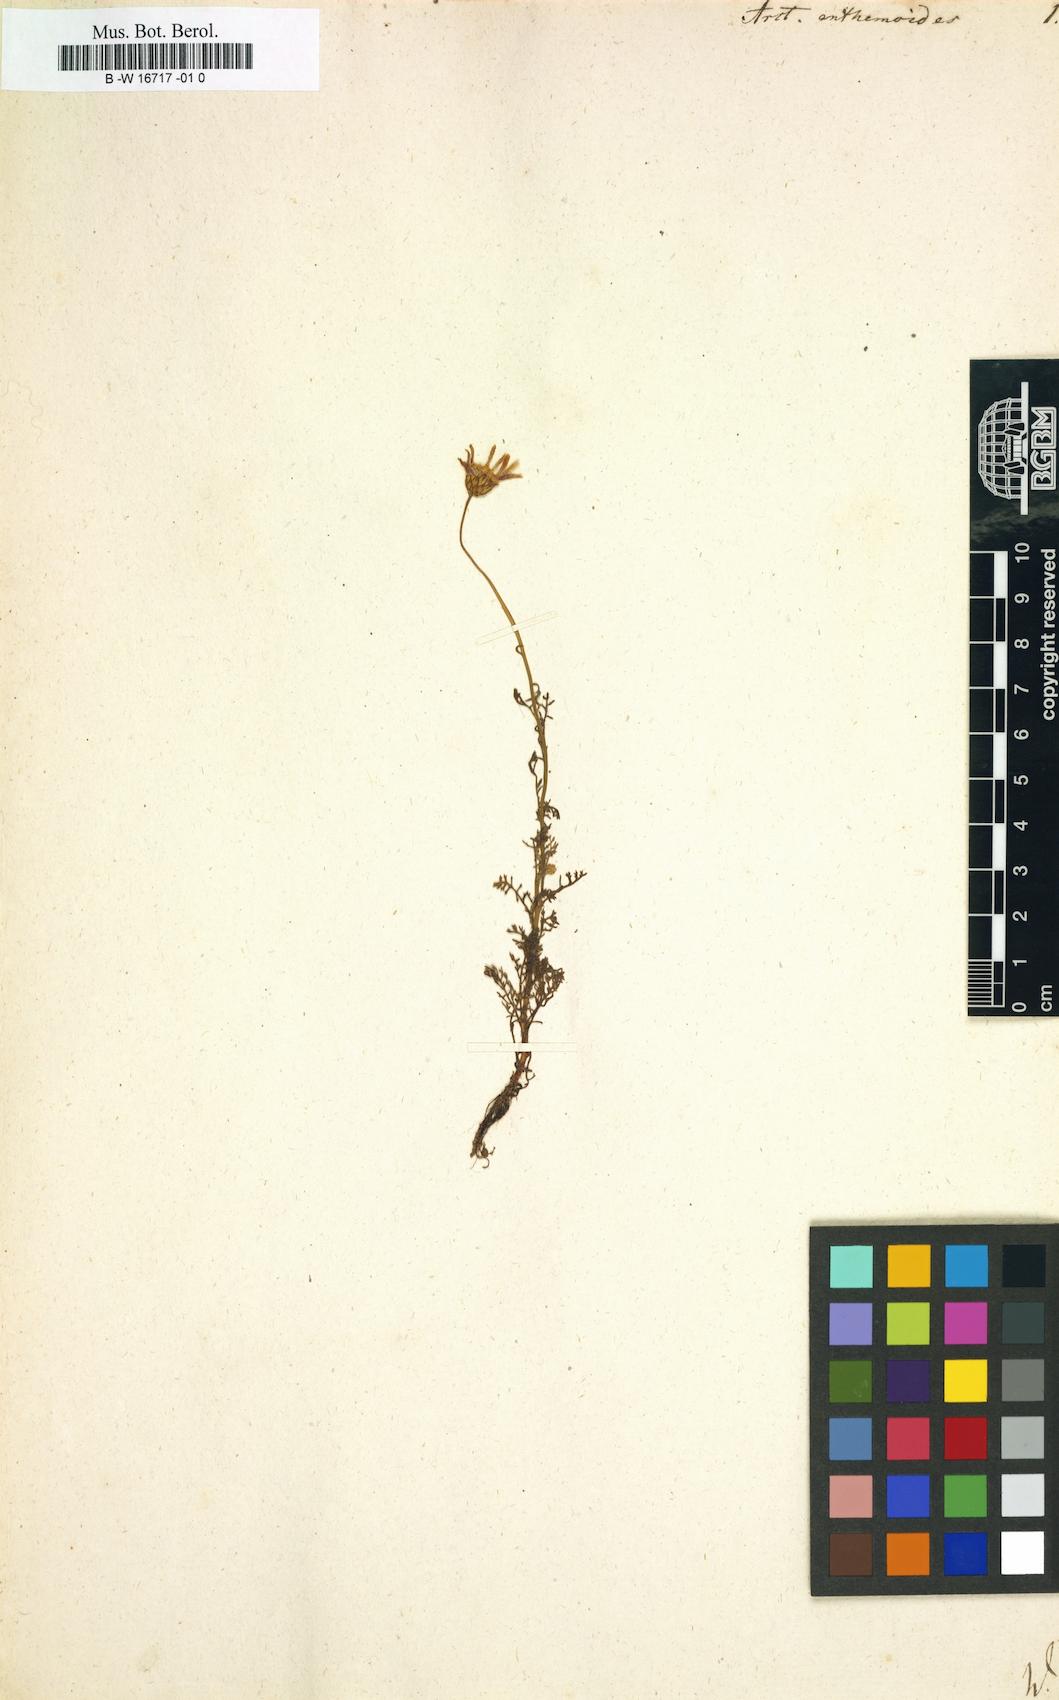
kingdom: Plantae
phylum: Tracheophyta
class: Magnoliopsida
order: Asterales
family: Asteraceae
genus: Ursinia
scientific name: Ursinia
